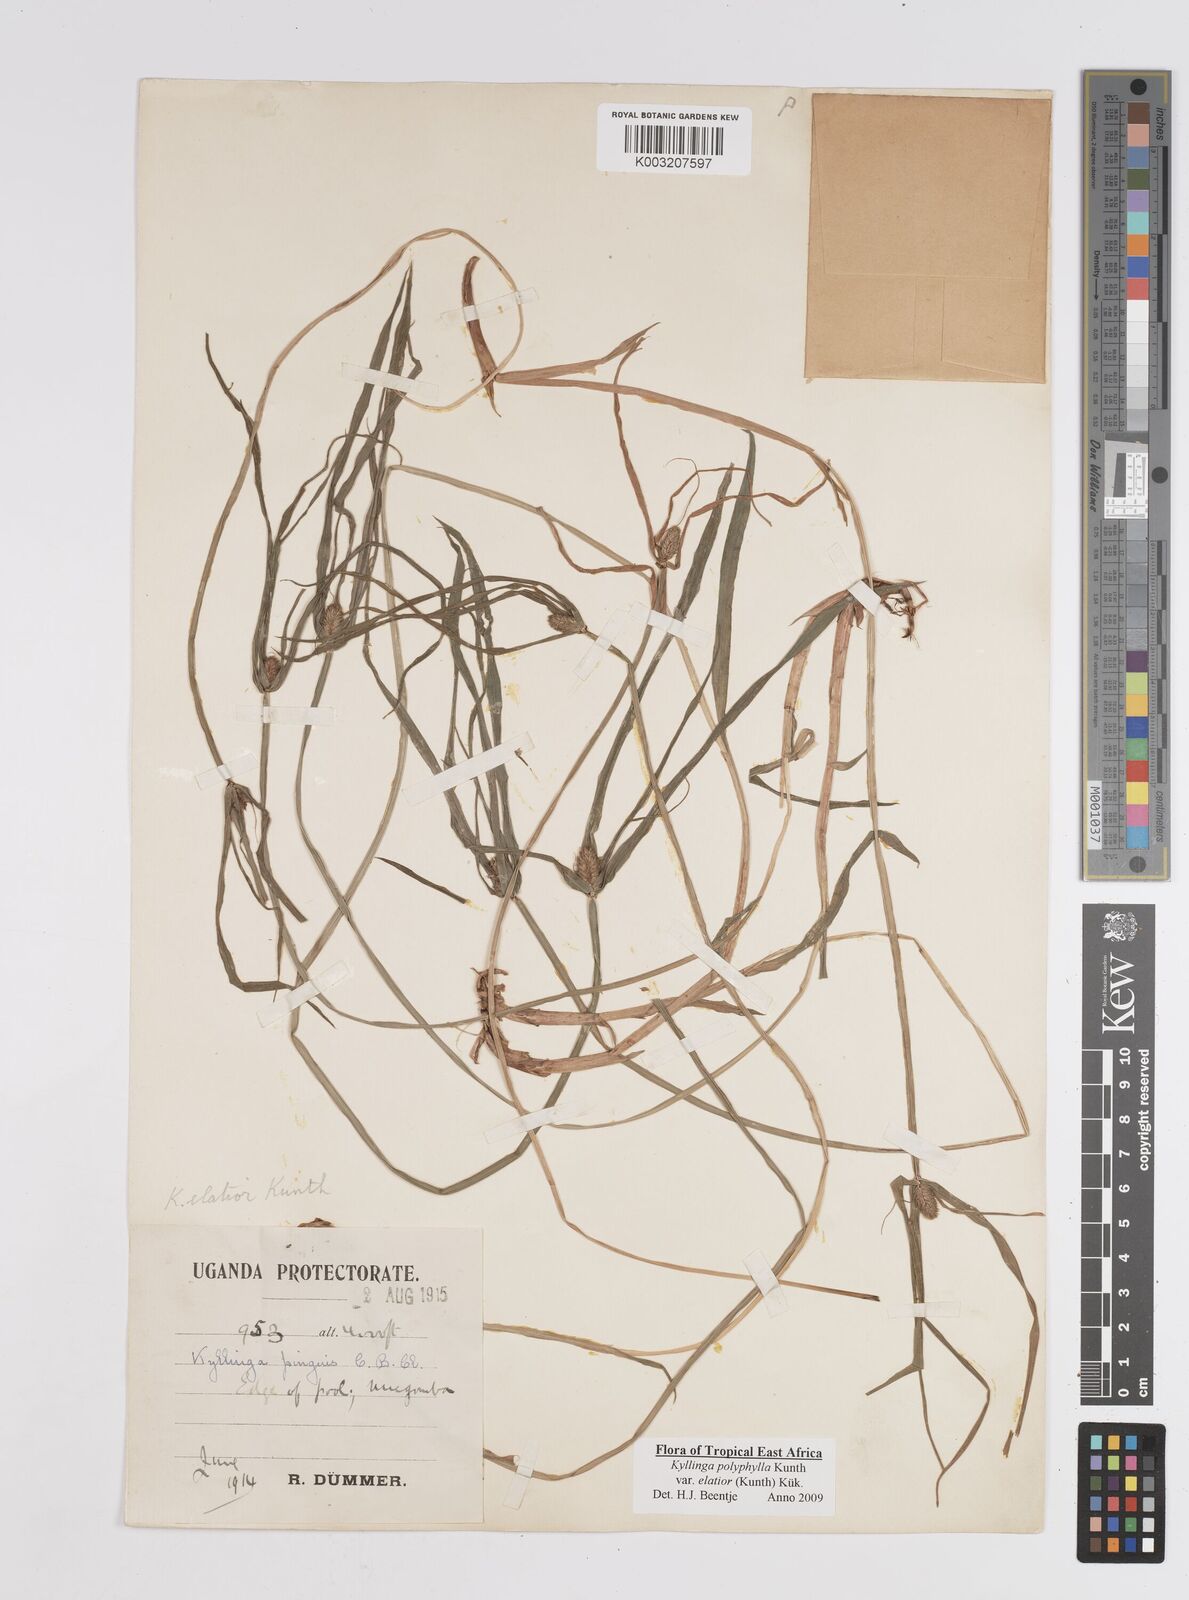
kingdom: Plantae
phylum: Tracheophyta
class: Liliopsida
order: Poales
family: Cyperaceae
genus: Cyperus
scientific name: Cyperus
